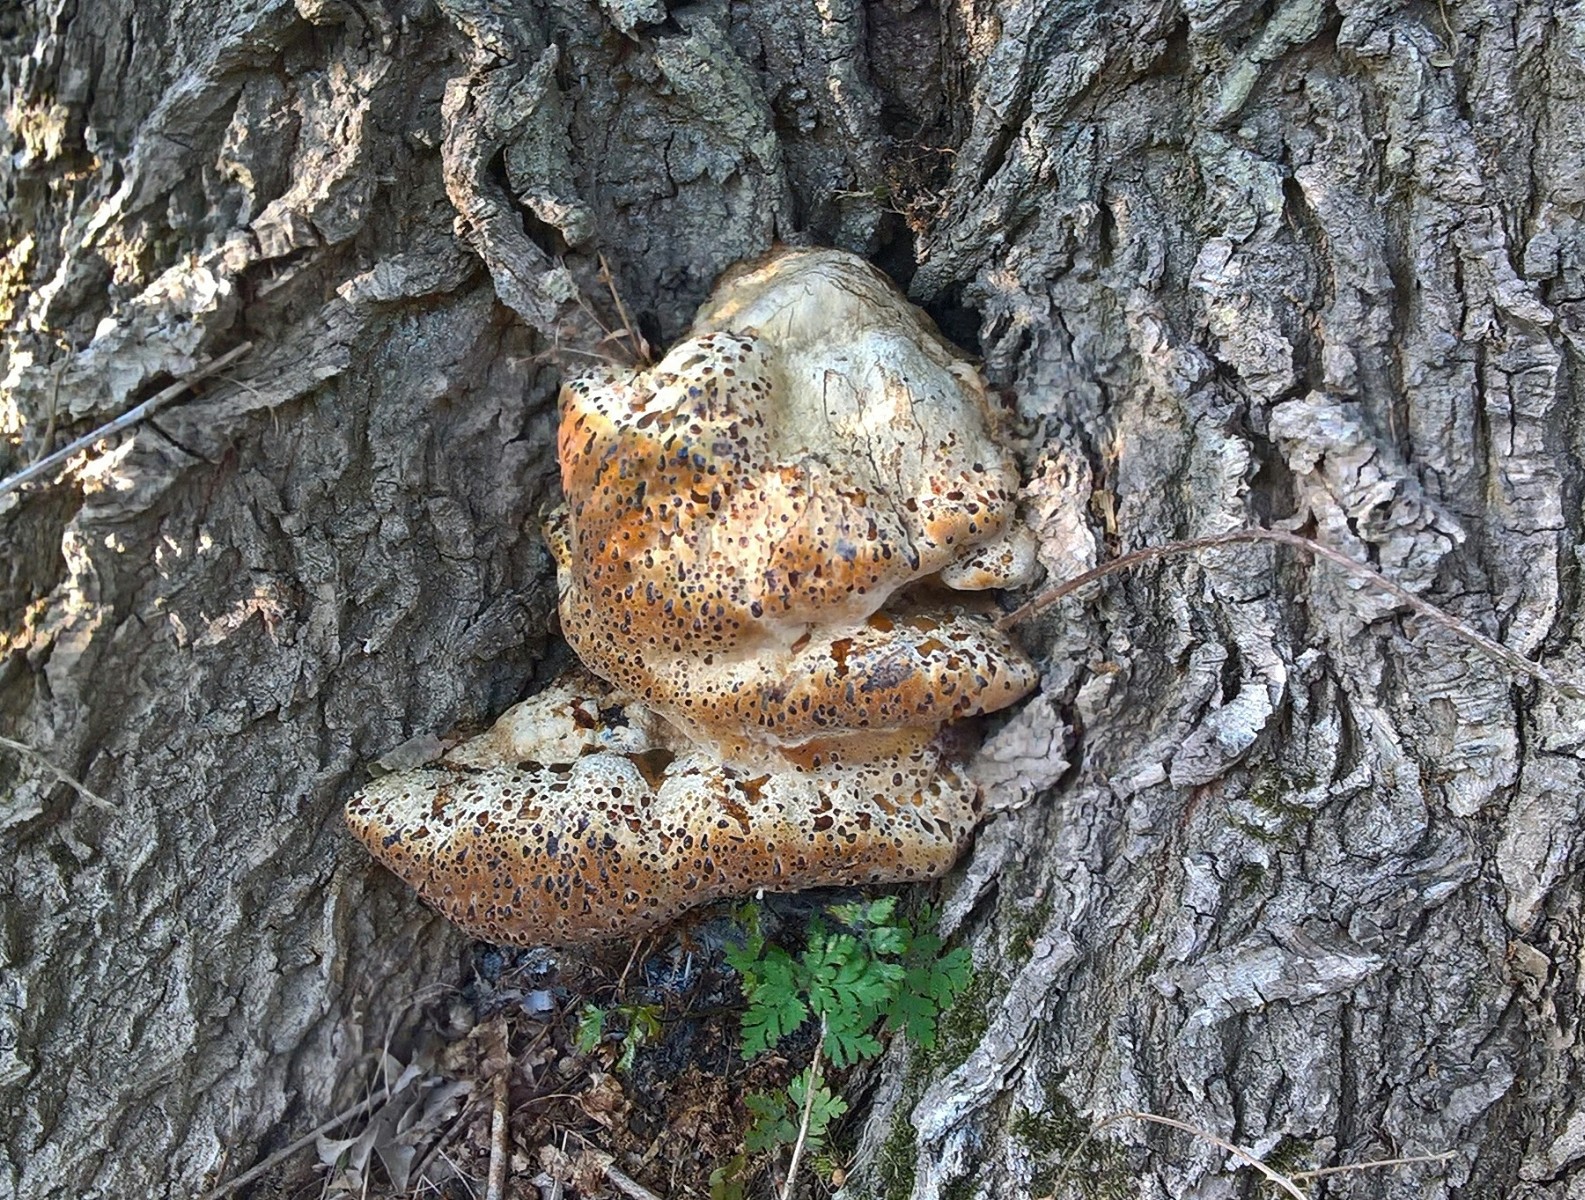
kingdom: Fungi
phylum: Basidiomycota
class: Agaricomycetes
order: Hymenochaetales
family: Hymenochaetaceae
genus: Pseudoinonotus
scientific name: Pseudoinonotus dryadeus
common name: ege-spejlporesvamp
